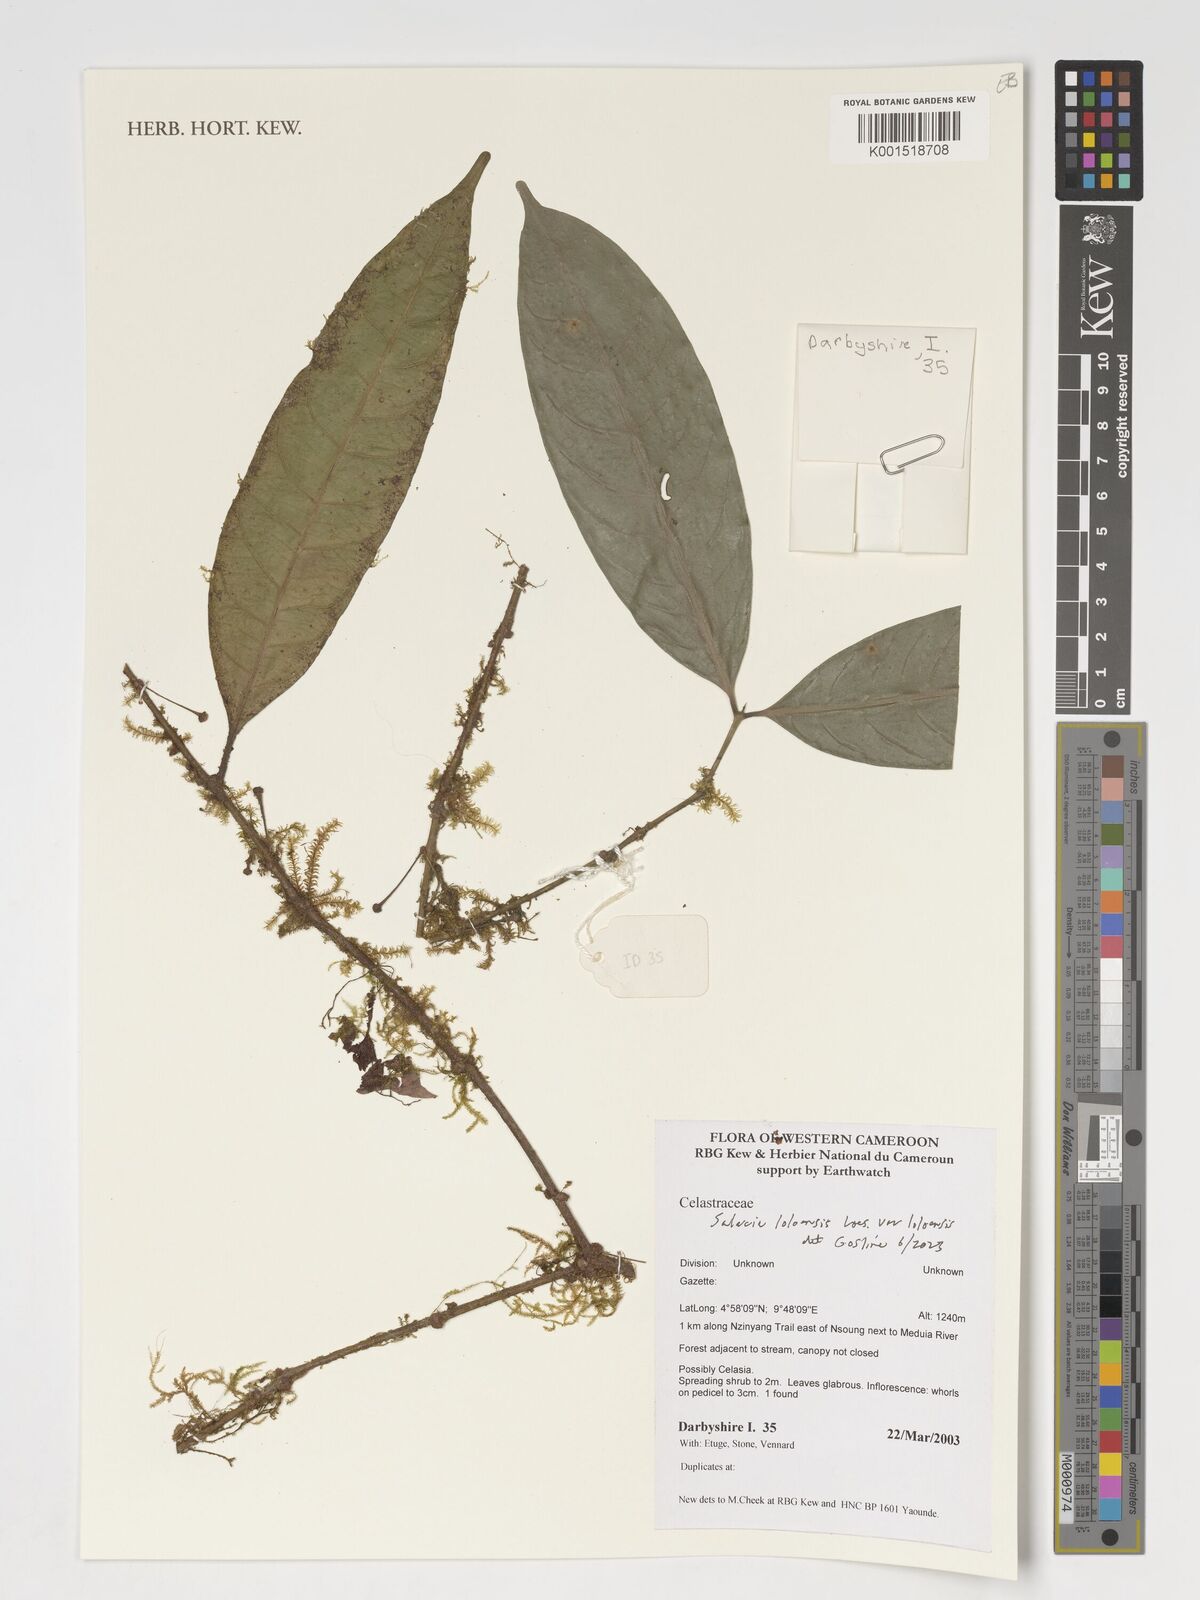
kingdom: Plantae
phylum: Tracheophyta
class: Magnoliopsida
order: Celastrales
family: Celastraceae
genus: Salacia
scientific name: Salacia loloensis
